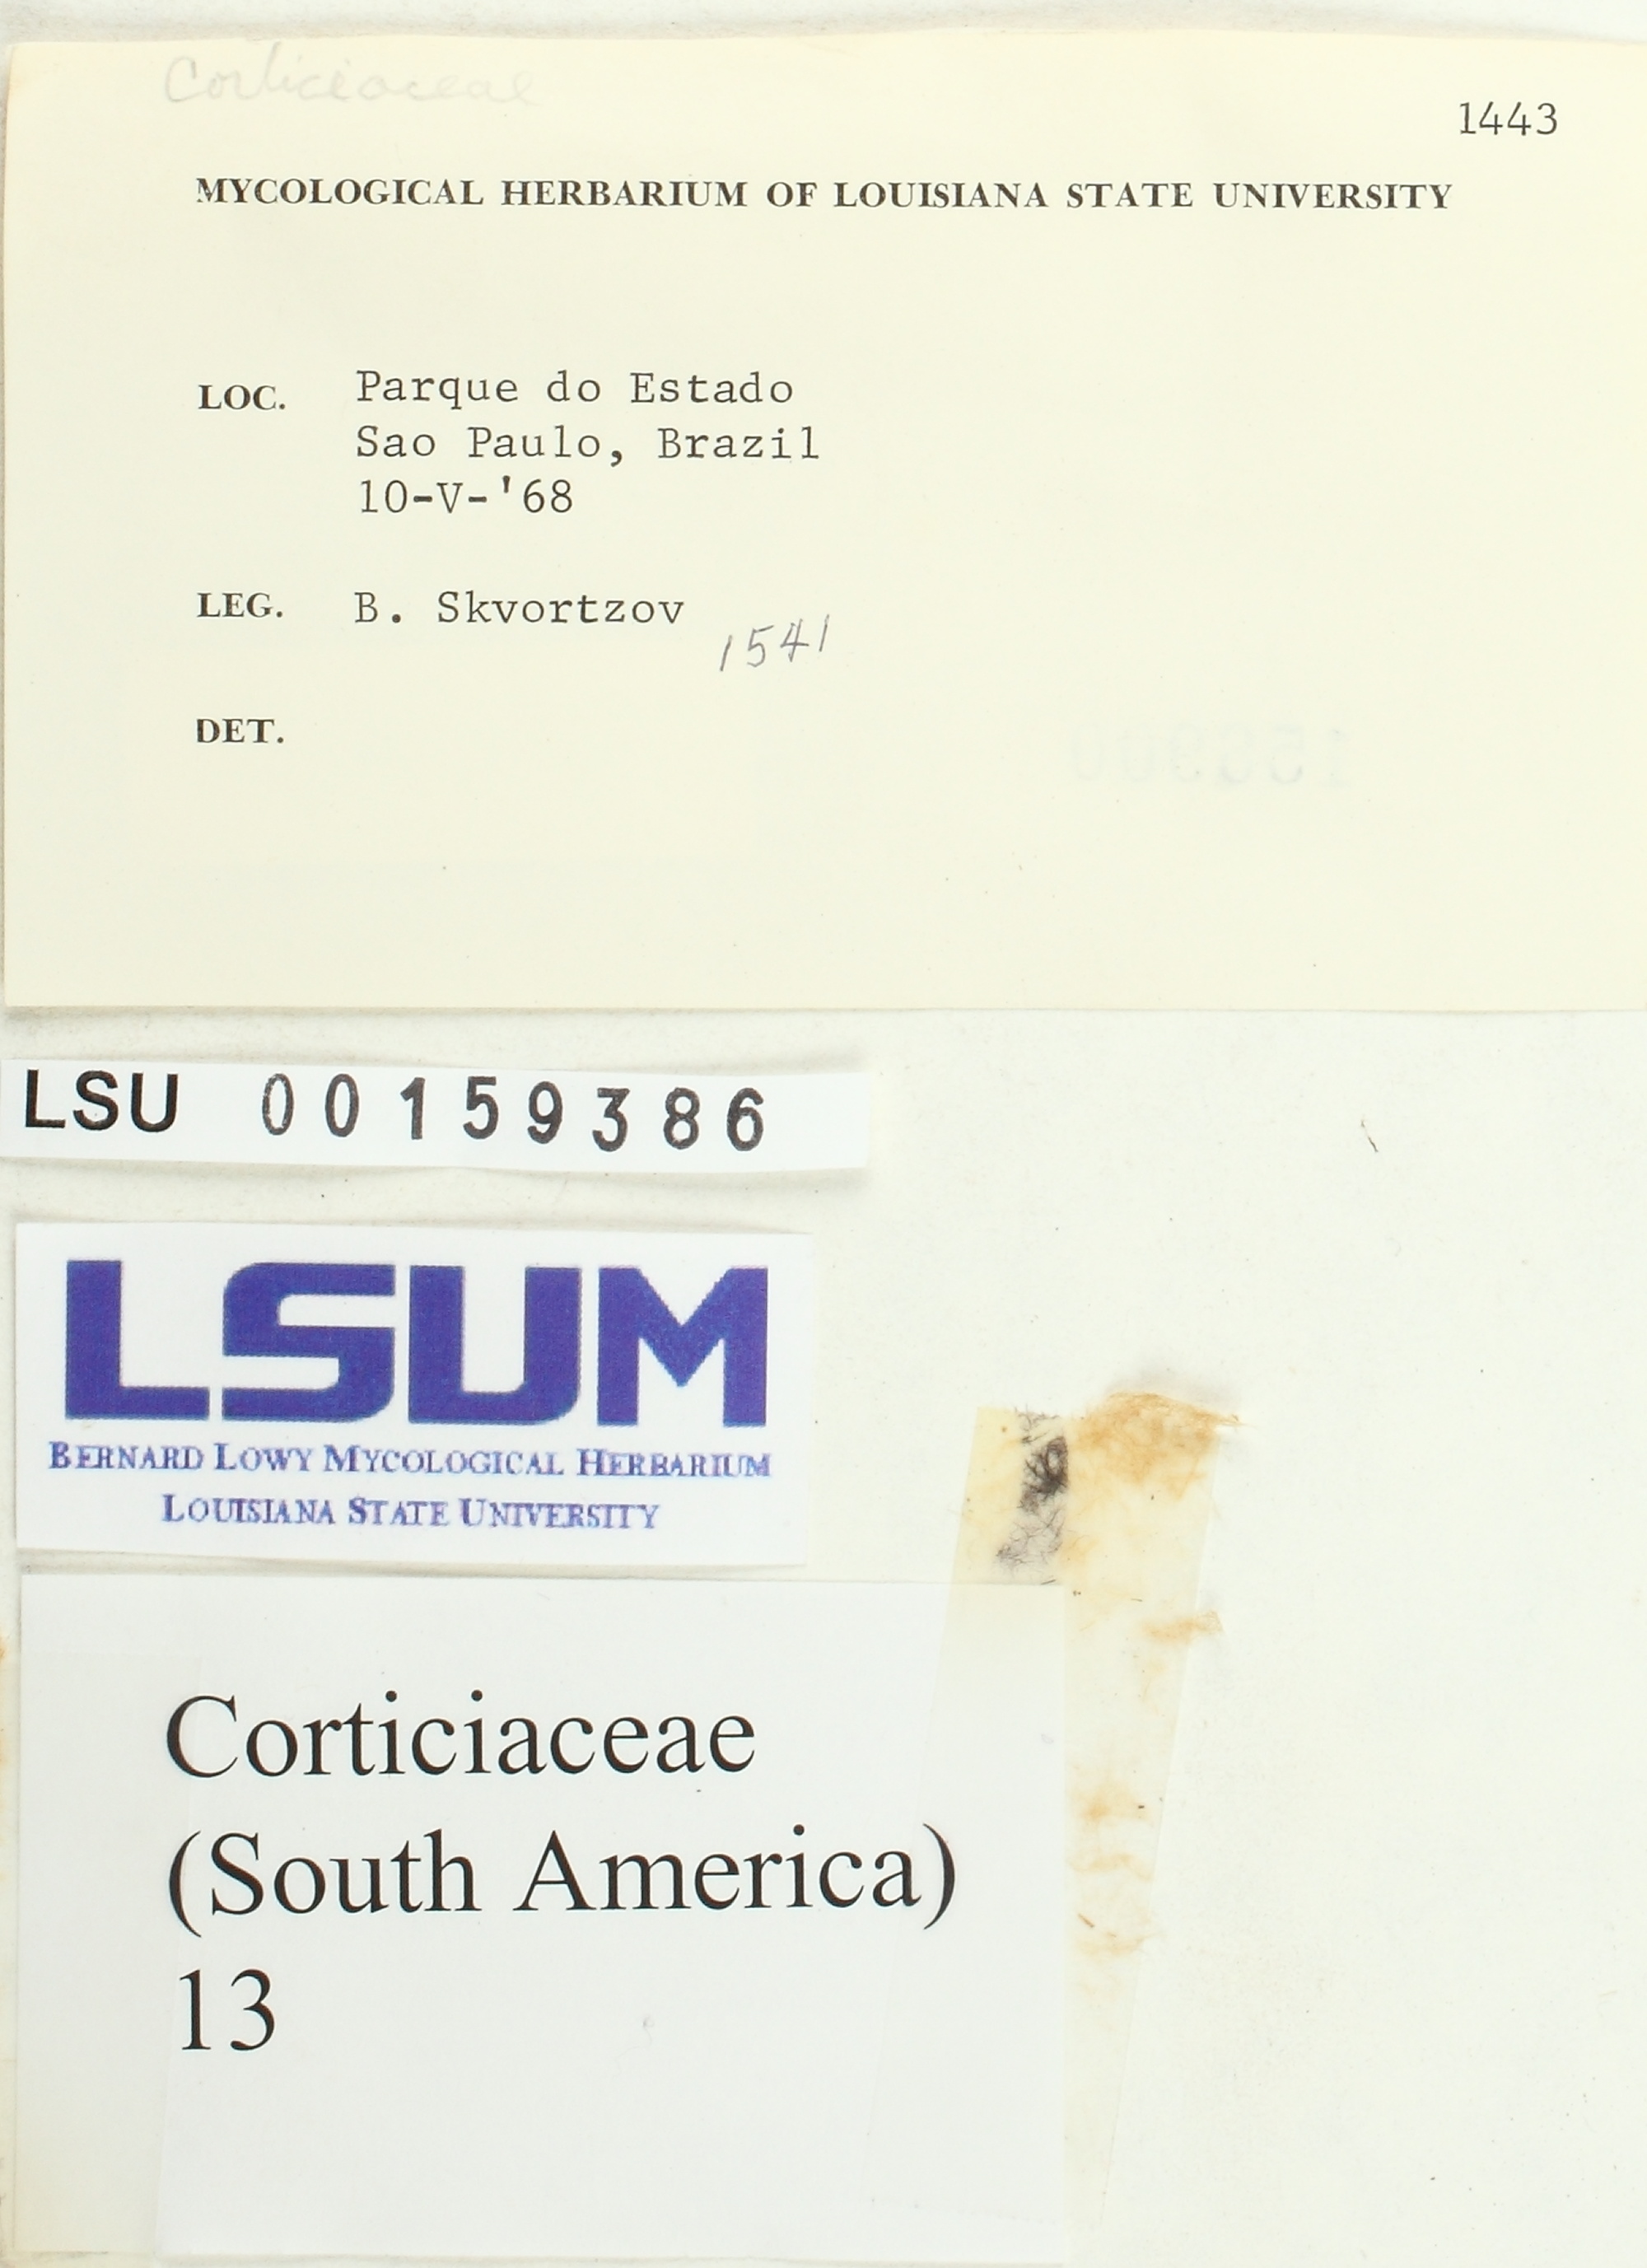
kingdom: Fungi
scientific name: Fungi
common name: Fungi
